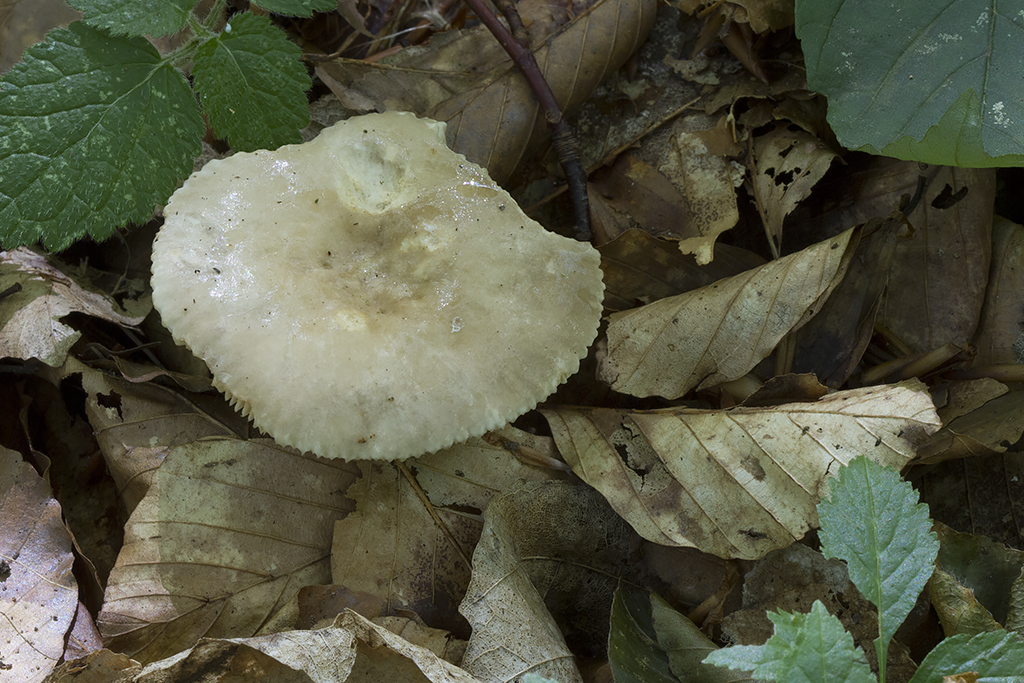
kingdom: Fungi
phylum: Basidiomycota
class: Agaricomycetes
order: Russulales
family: Russulaceae
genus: Lactarius
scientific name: Lactarius pterosporus
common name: vingesporet mælkehat
